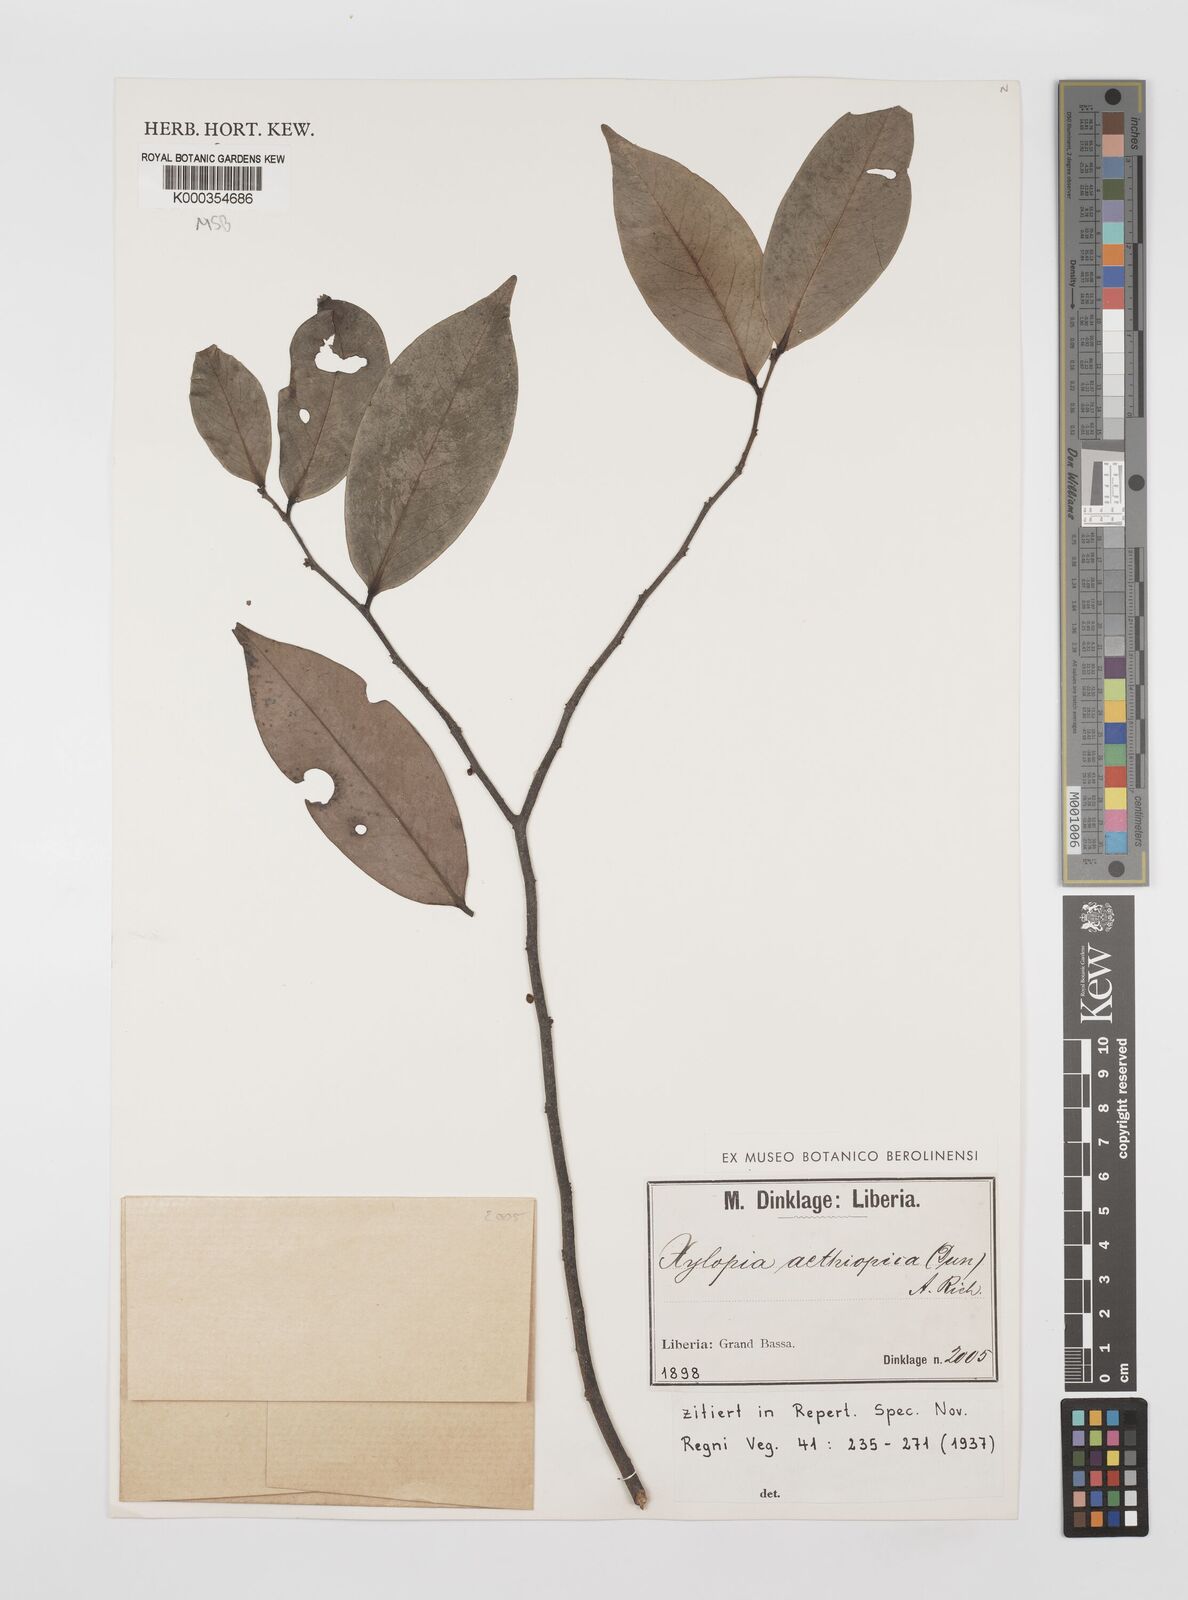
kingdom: Plantae
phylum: Tracheophyta
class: Magnoliopsida
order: Magnoliales
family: Annonaceae
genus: Xylopia
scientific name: Xylopia aethiopica
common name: Ethiopian-pepper
